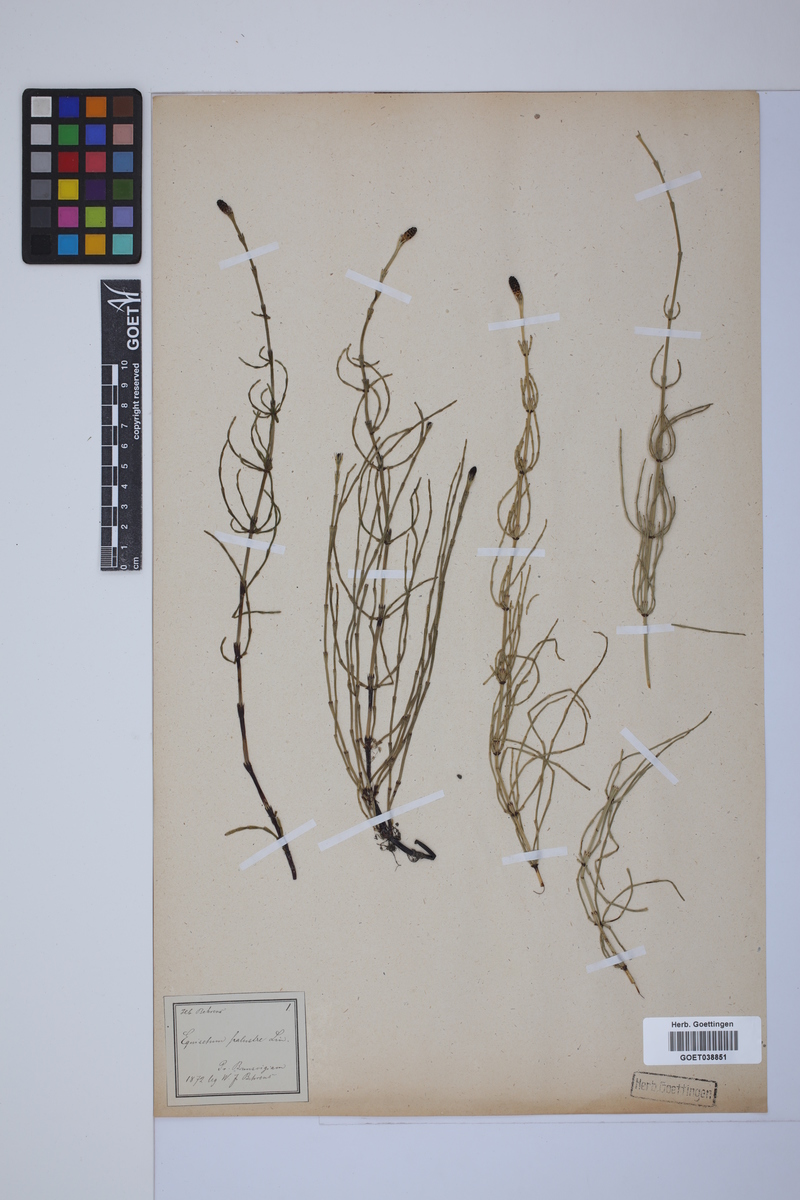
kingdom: Plantae
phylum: Tracheophyta
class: Polypodiopsida
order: Equisetales
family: Equisetaceae
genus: Equisetum
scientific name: Equisetum palustre
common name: Marsh horsetail
